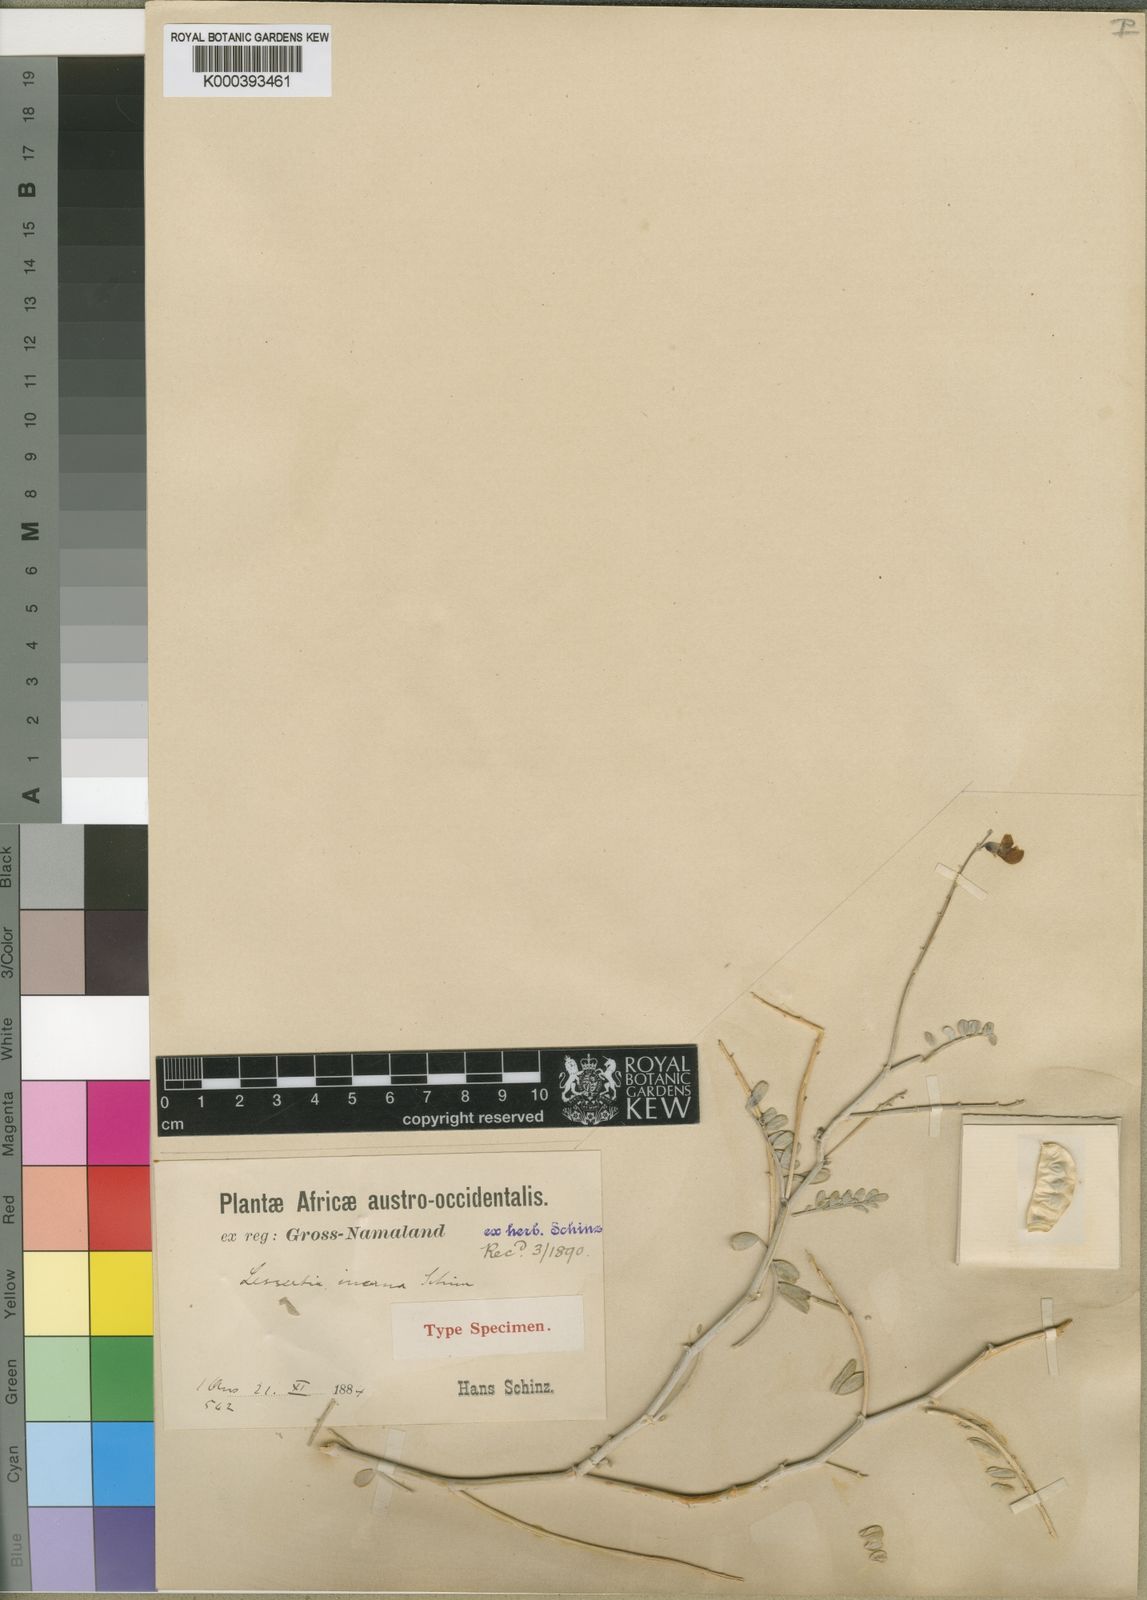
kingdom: Plantae
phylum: Tracheophyta
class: Magnoliopsida
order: Fabales
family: Fabaceae
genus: Lessertia
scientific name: Lessertia incana
